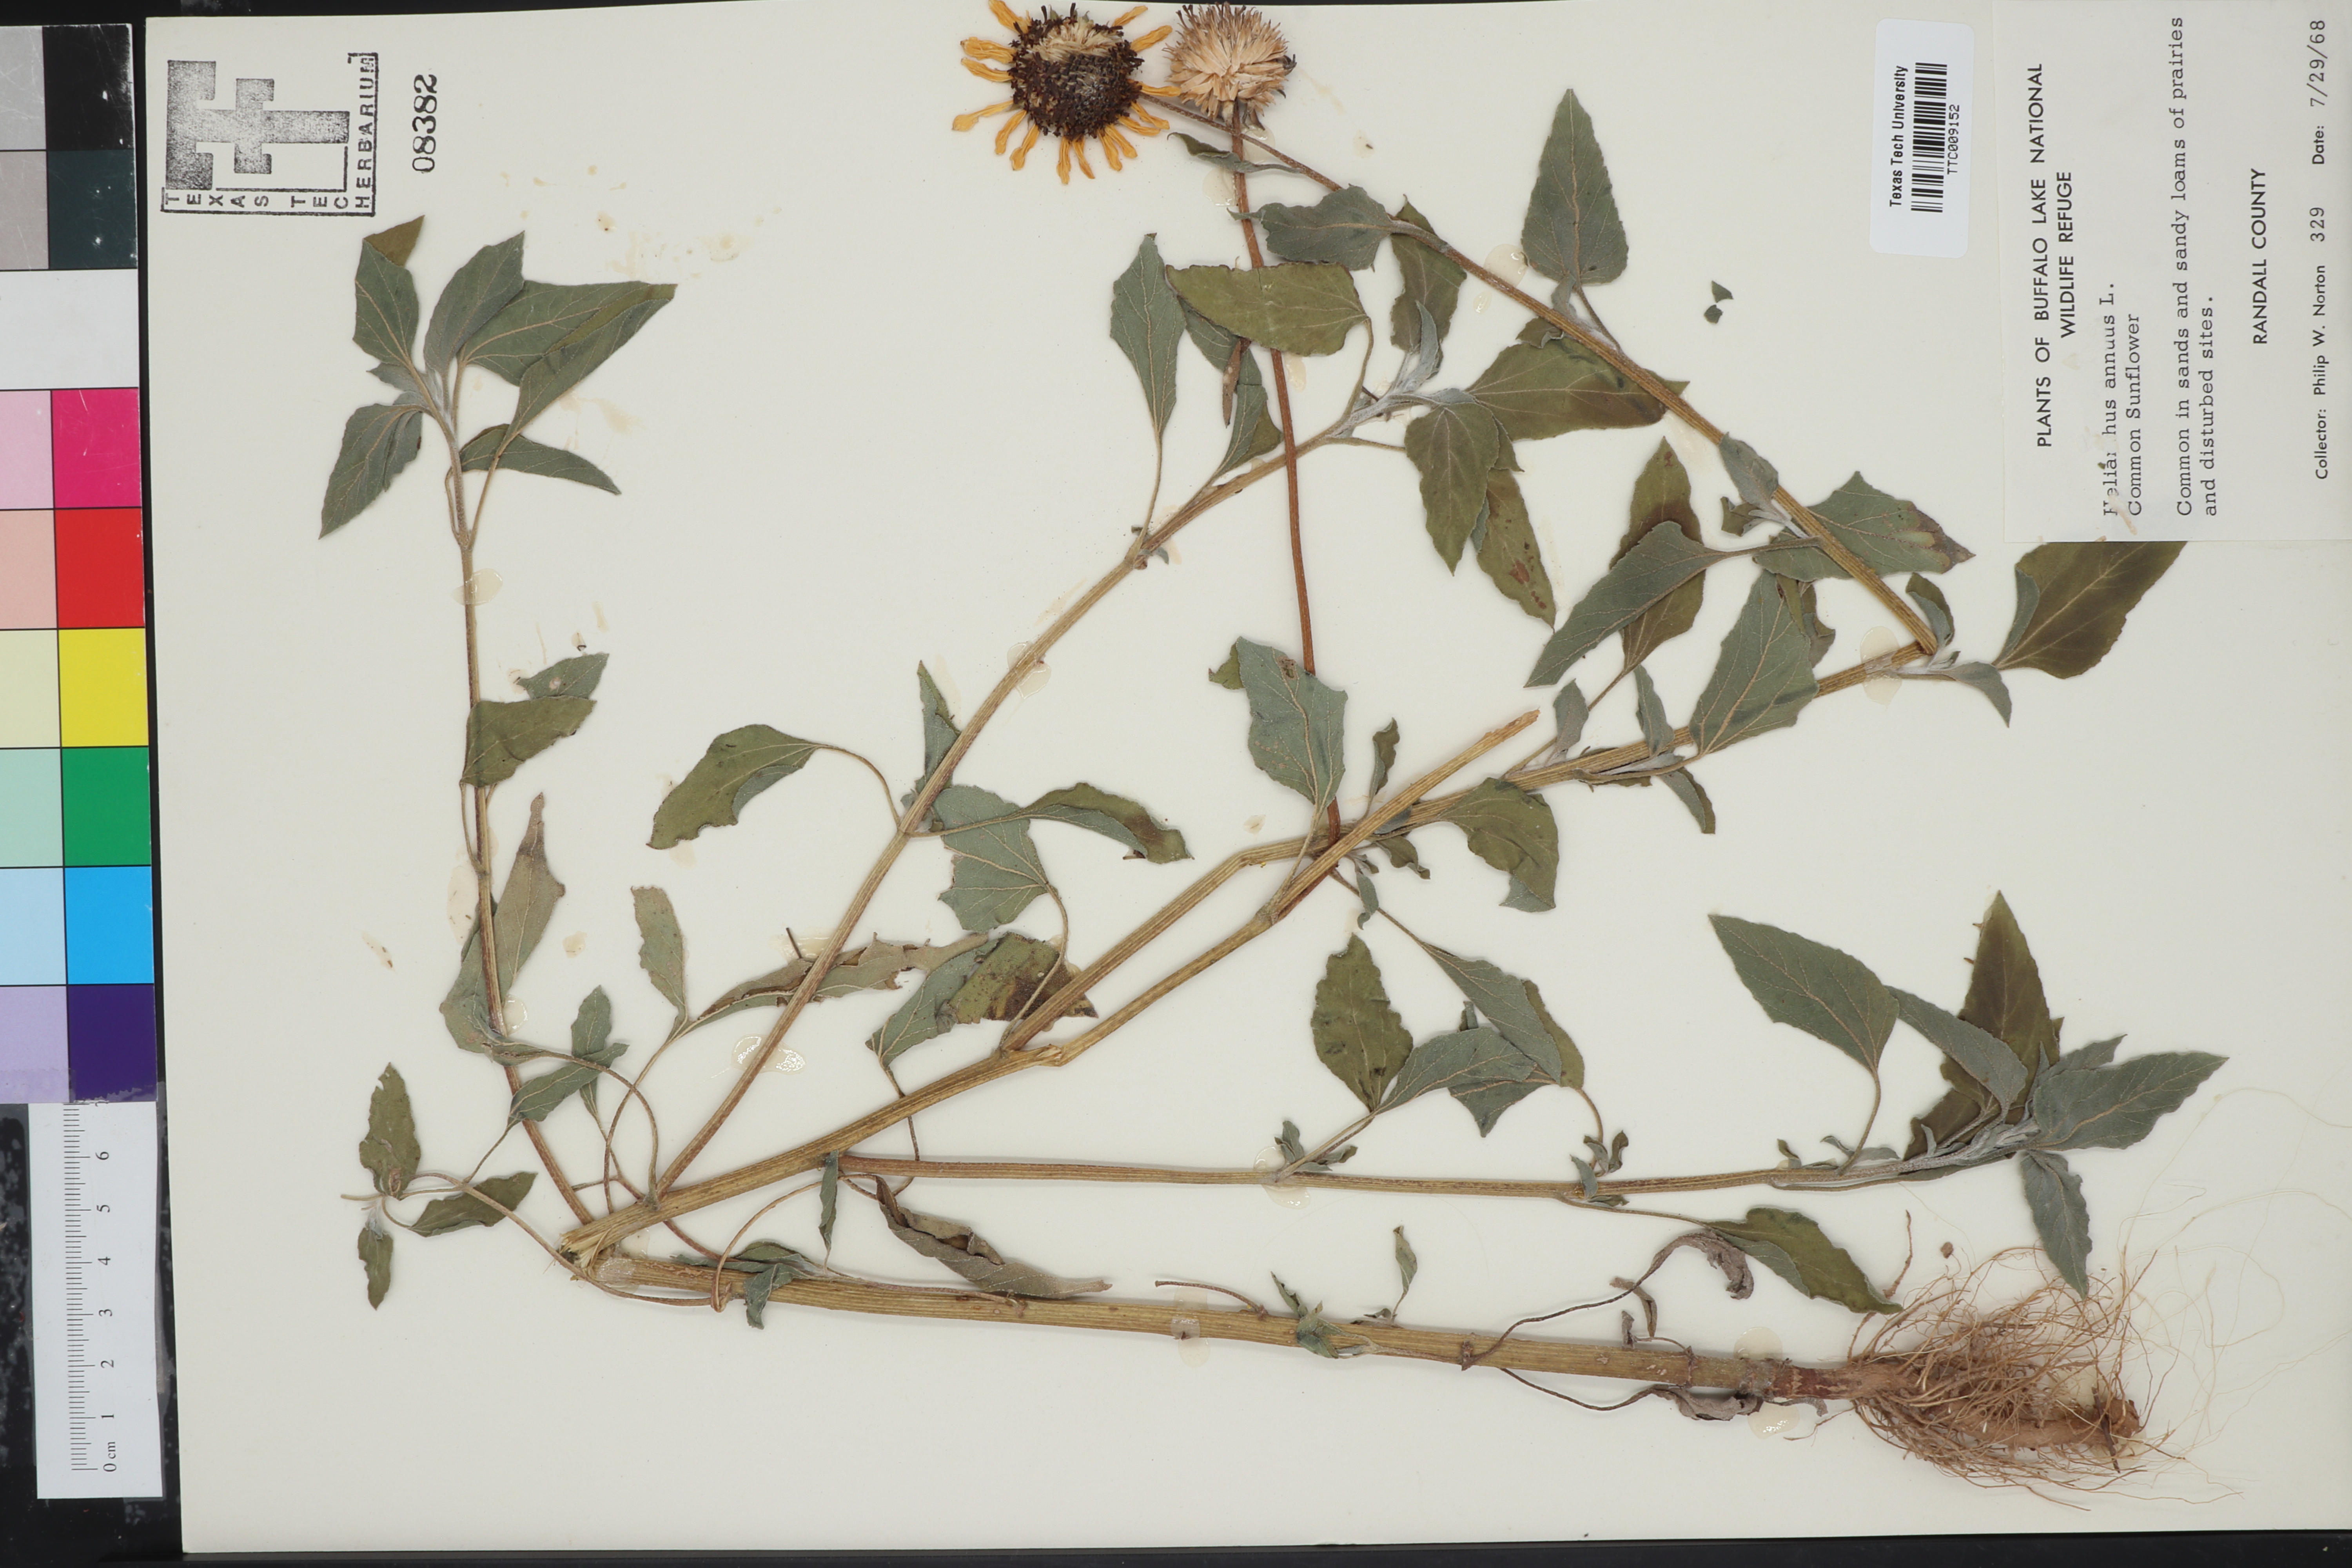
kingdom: Plantae
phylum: Tracheophyta
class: Magnoliopsida
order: Asterales
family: Asteraceae
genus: Helianthus
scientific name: Helianthus annuus
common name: Sunflower
